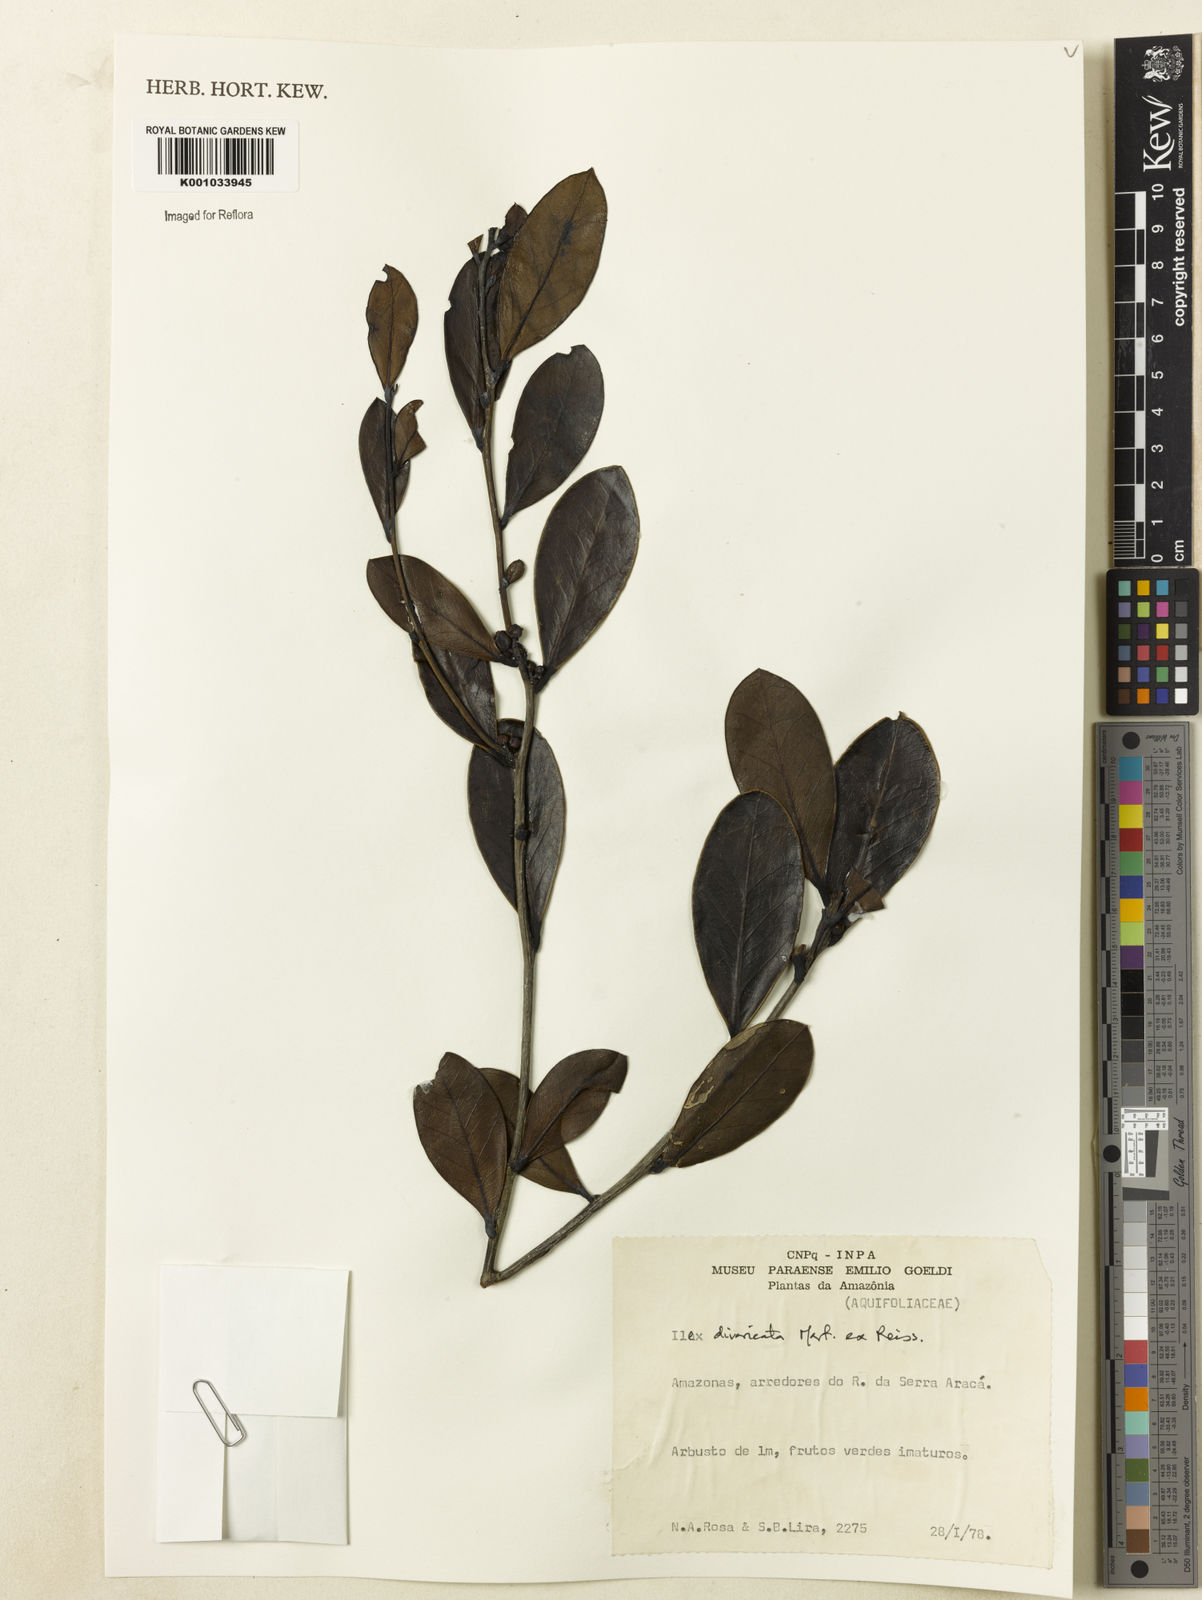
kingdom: Plantae
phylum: Tracheophyta
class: Magnoliopsida
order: Aquifoliales
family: Aquifoliaceae
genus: Ilex
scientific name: Ilex divaricata
